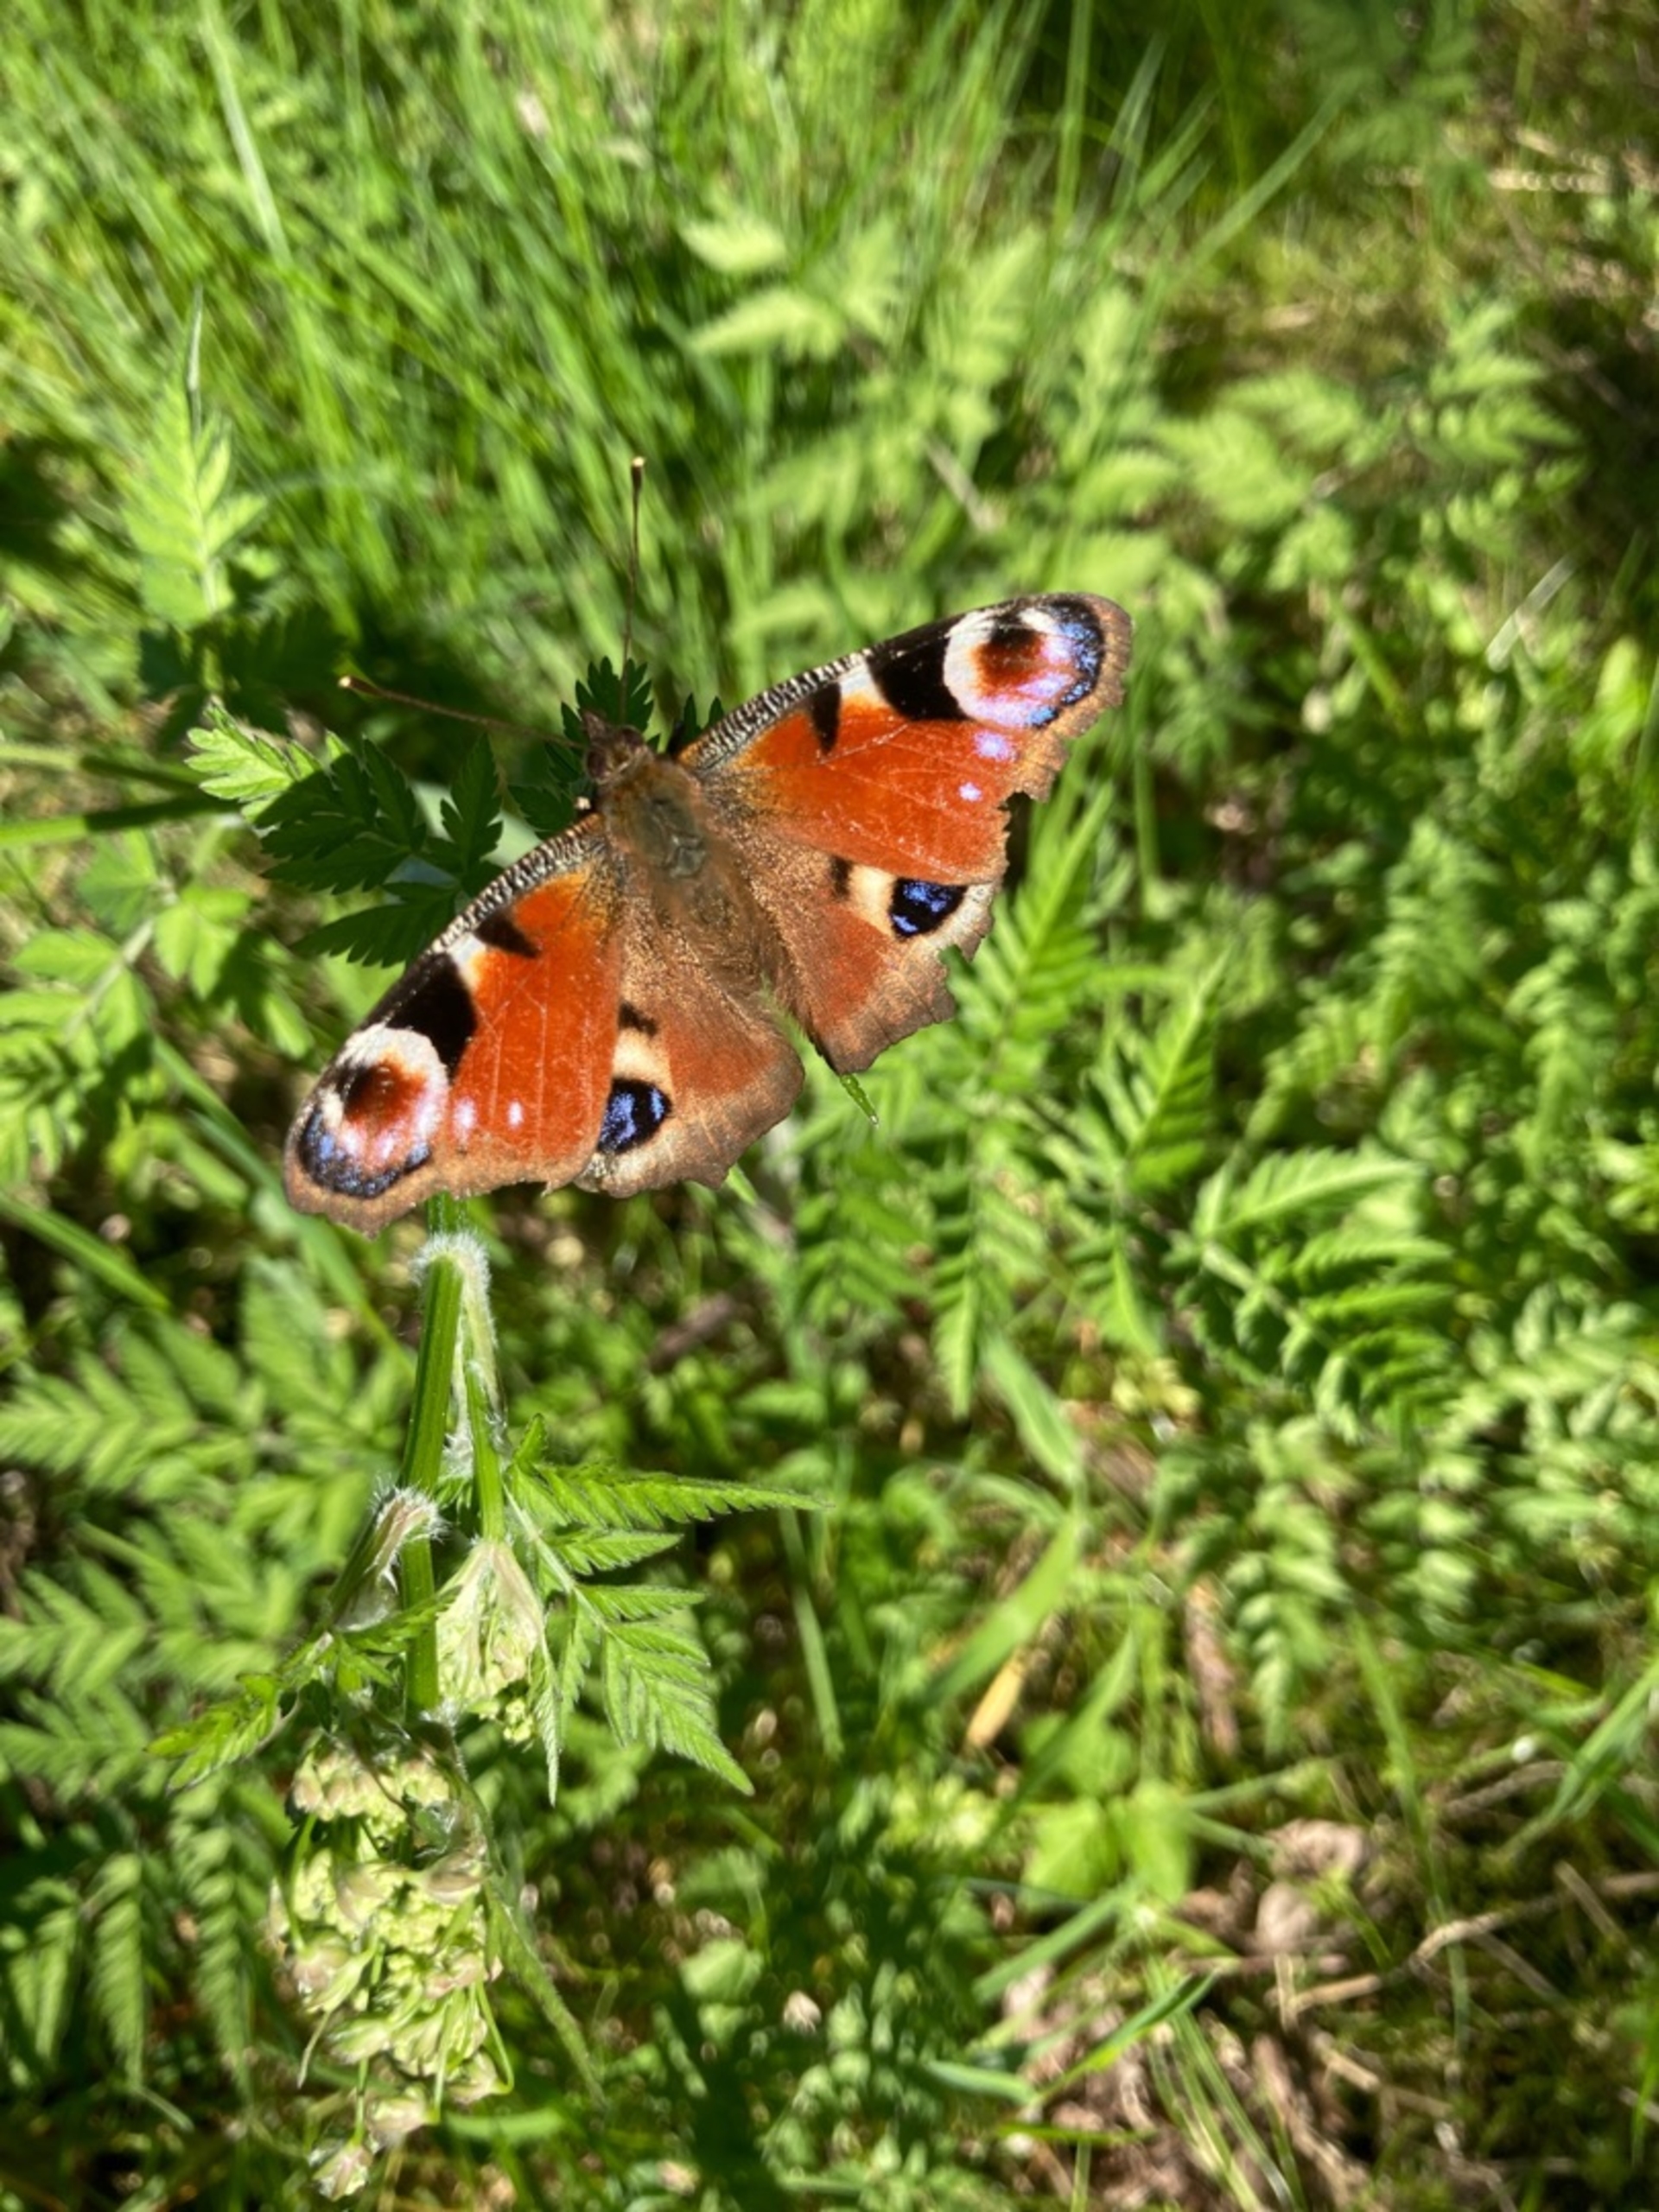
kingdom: Animalia
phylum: Arthropoda
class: Insecta
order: Lepidoptera
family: Nymphalidae
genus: Aglais
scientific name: Aglais io
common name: Dagpåfugleøje
